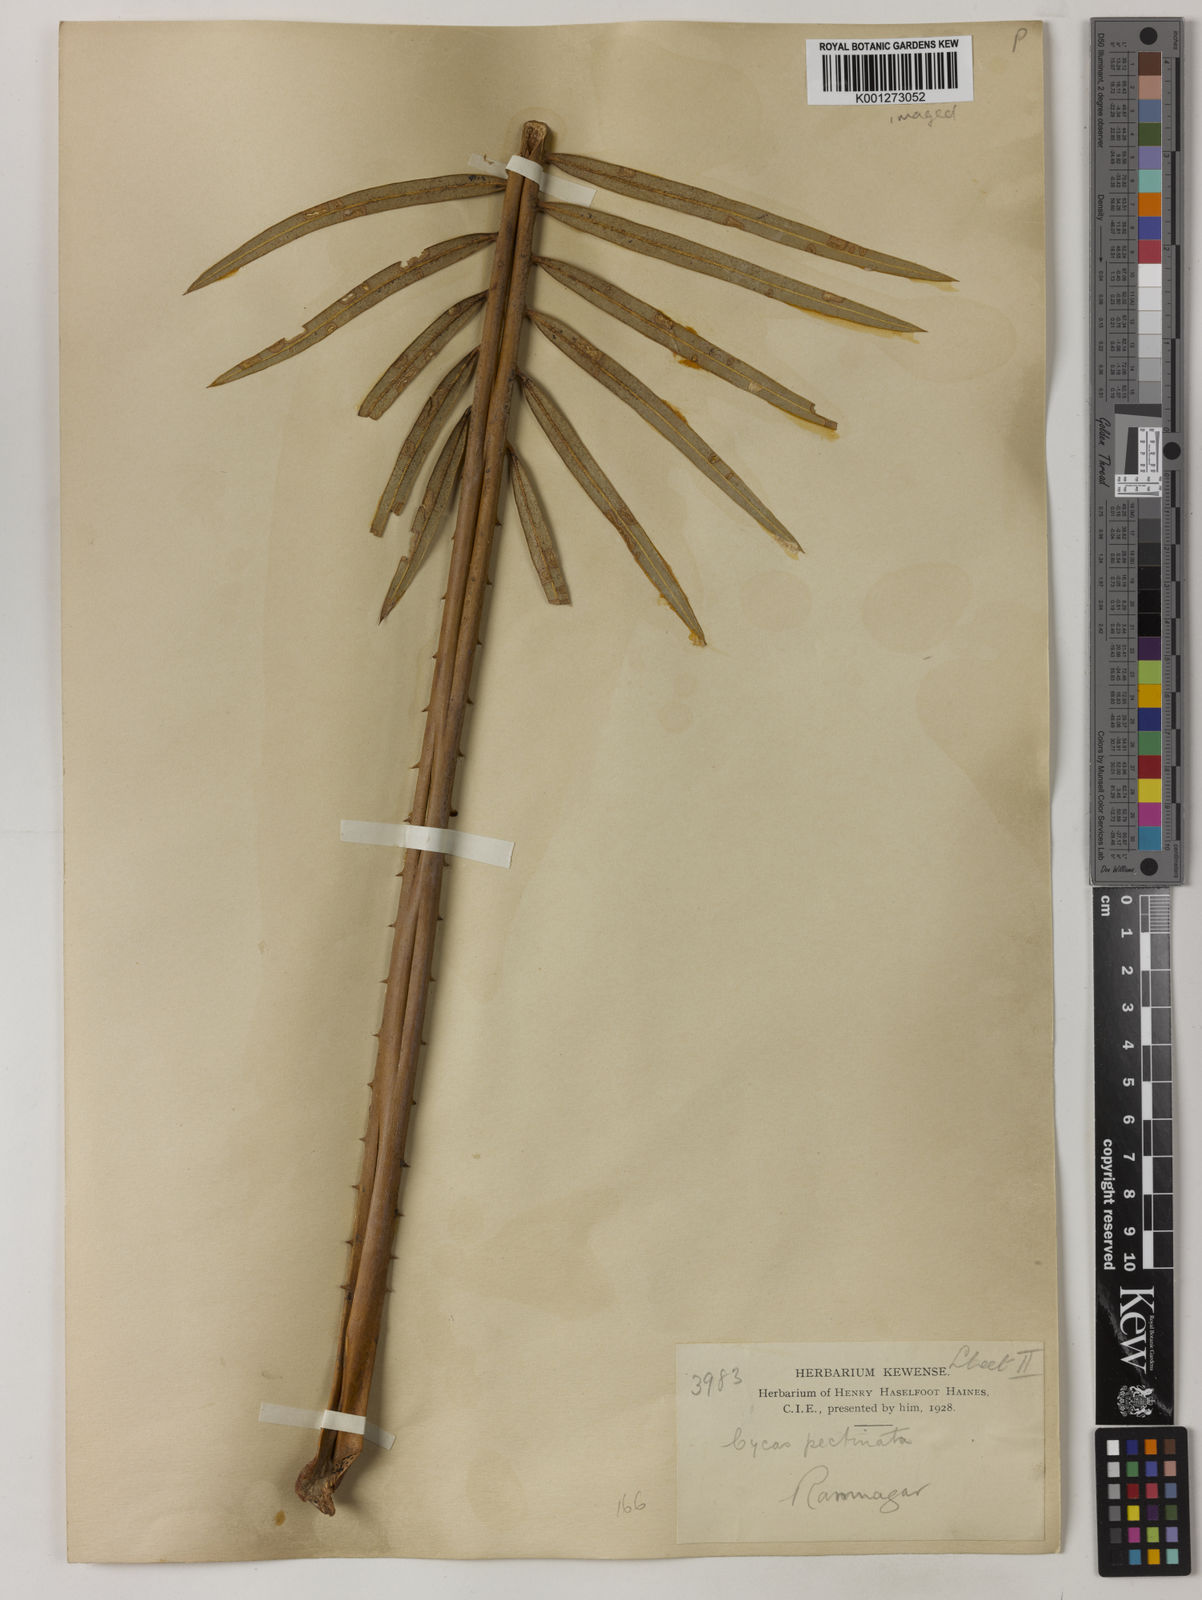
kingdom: Plantae
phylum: Tracheophyta
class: Cycadopsida
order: Cycadales
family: Cycadaceae
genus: Cycas
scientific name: Cycas pectinata
